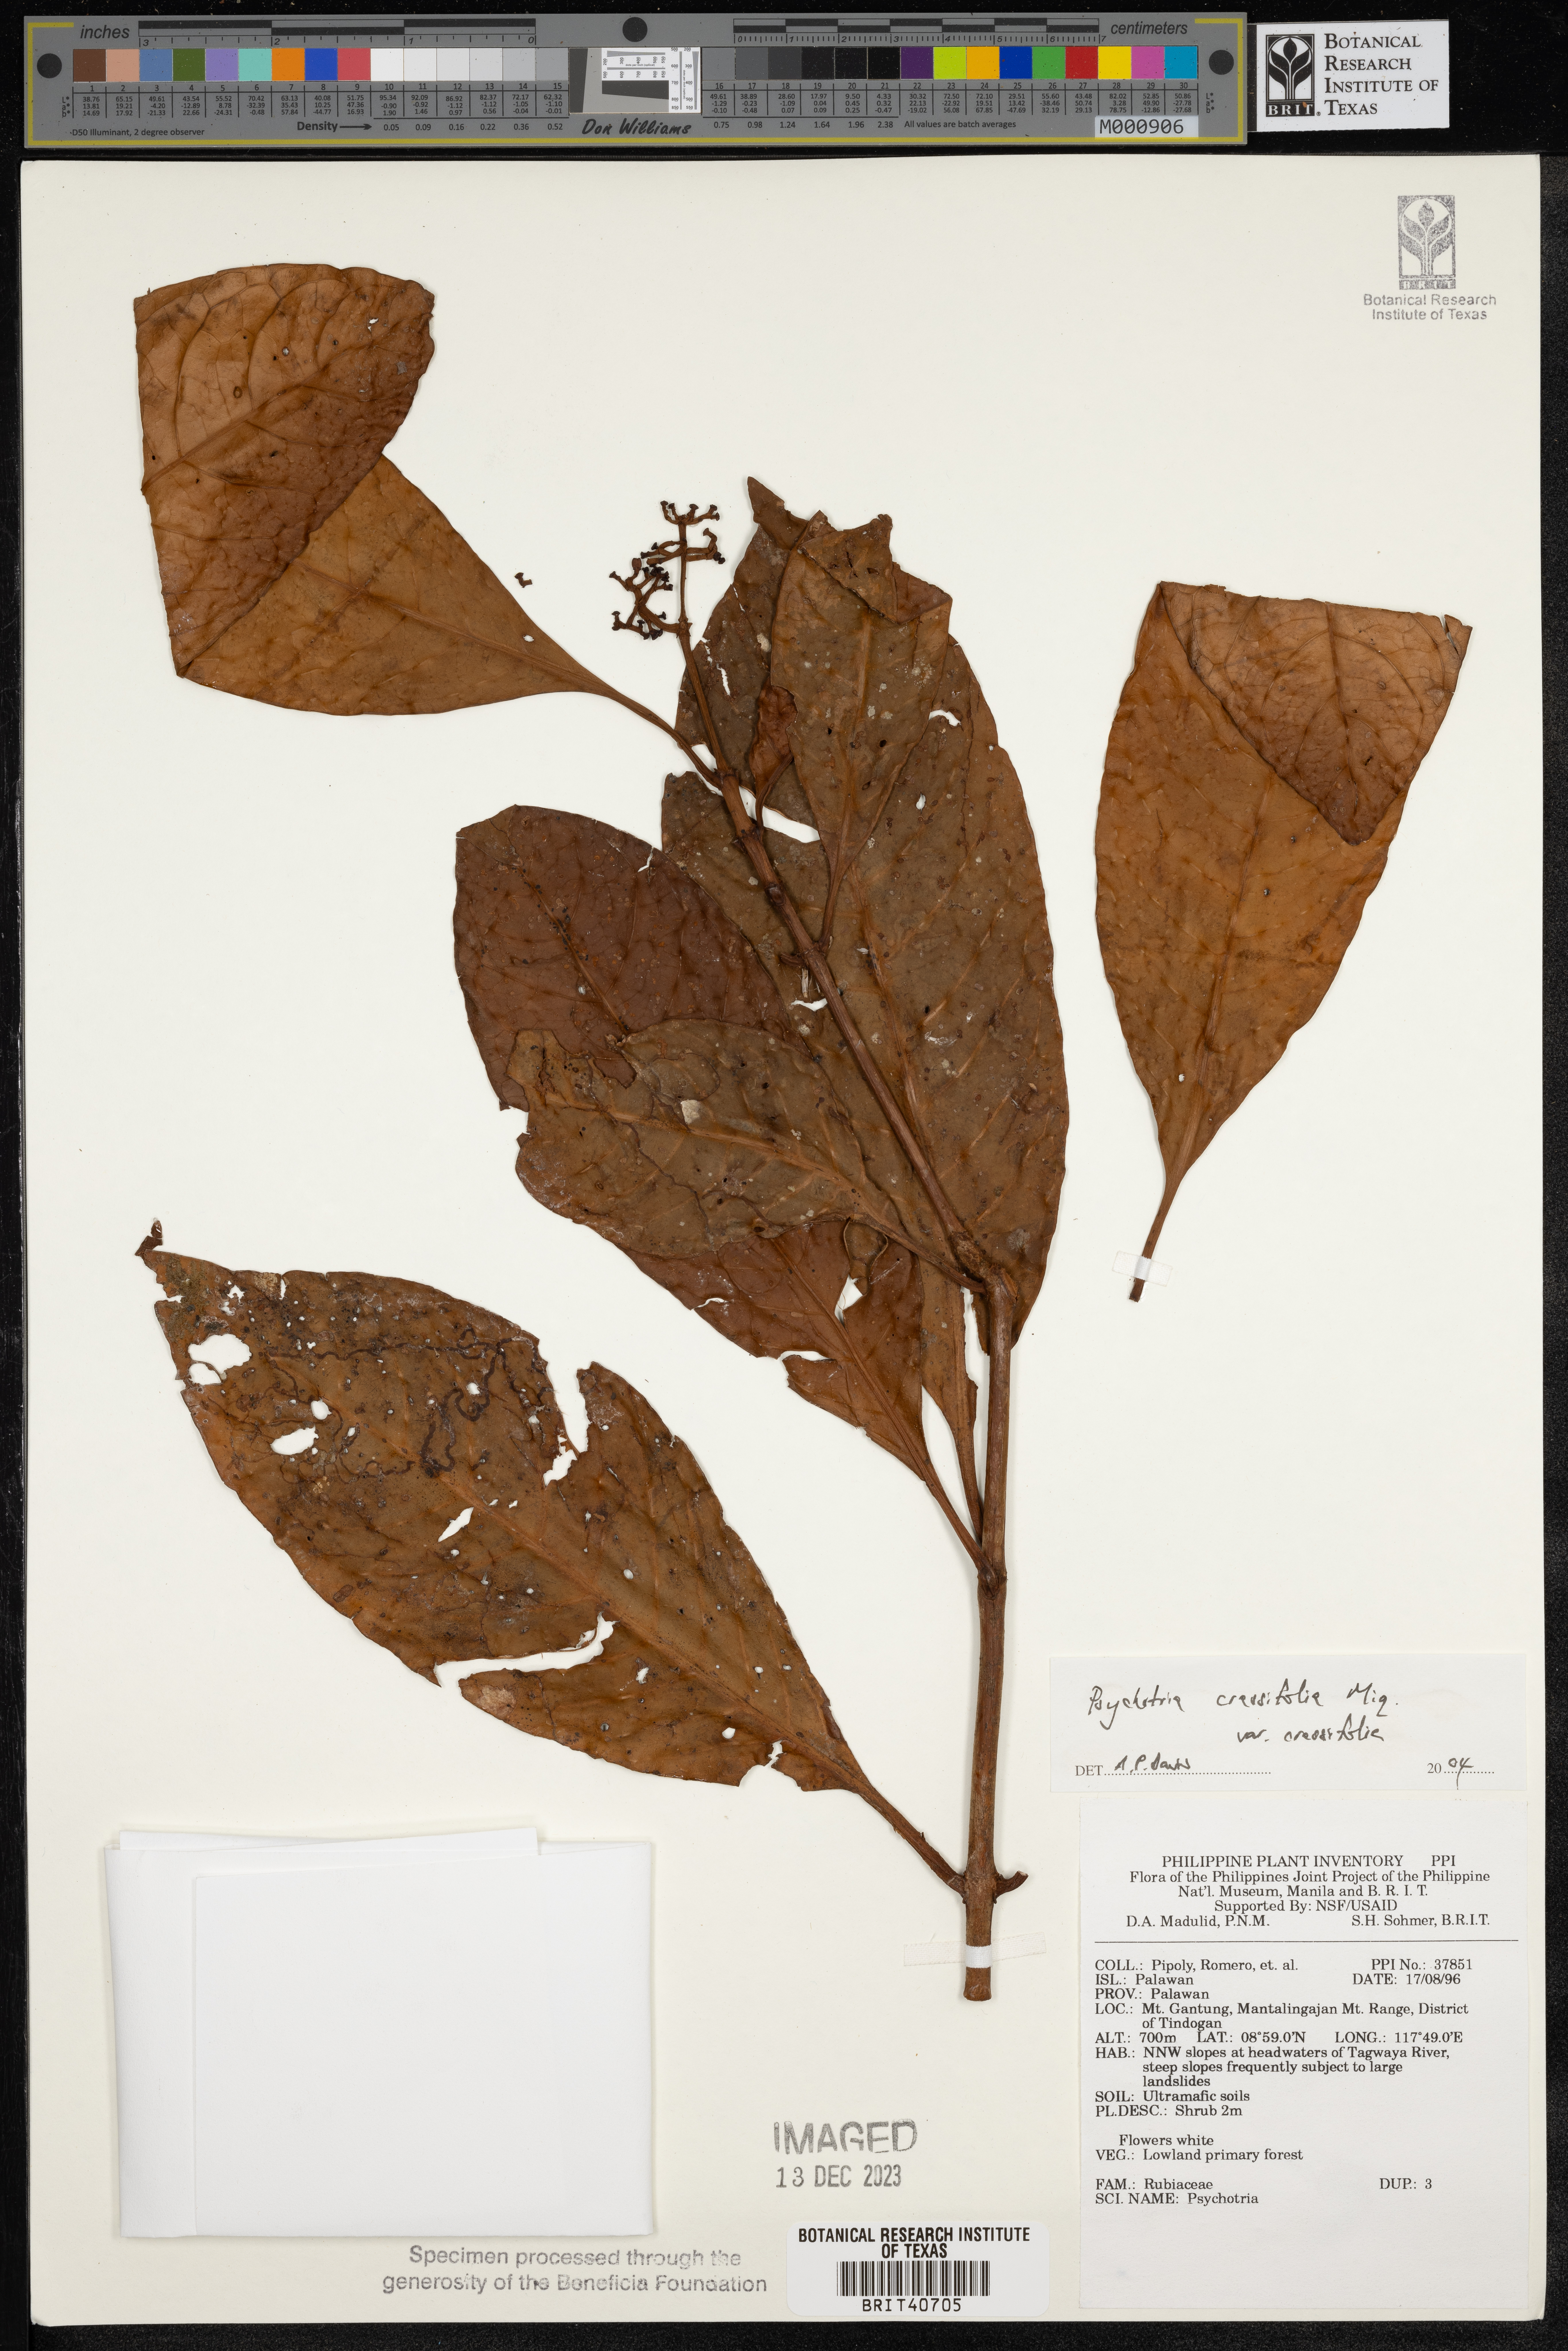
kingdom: Plantae
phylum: Tracheophyta
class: Magnoliopsida
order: Gentianales
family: Rubiaceae
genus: Psychotria
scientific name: Psychotria crassifolia
